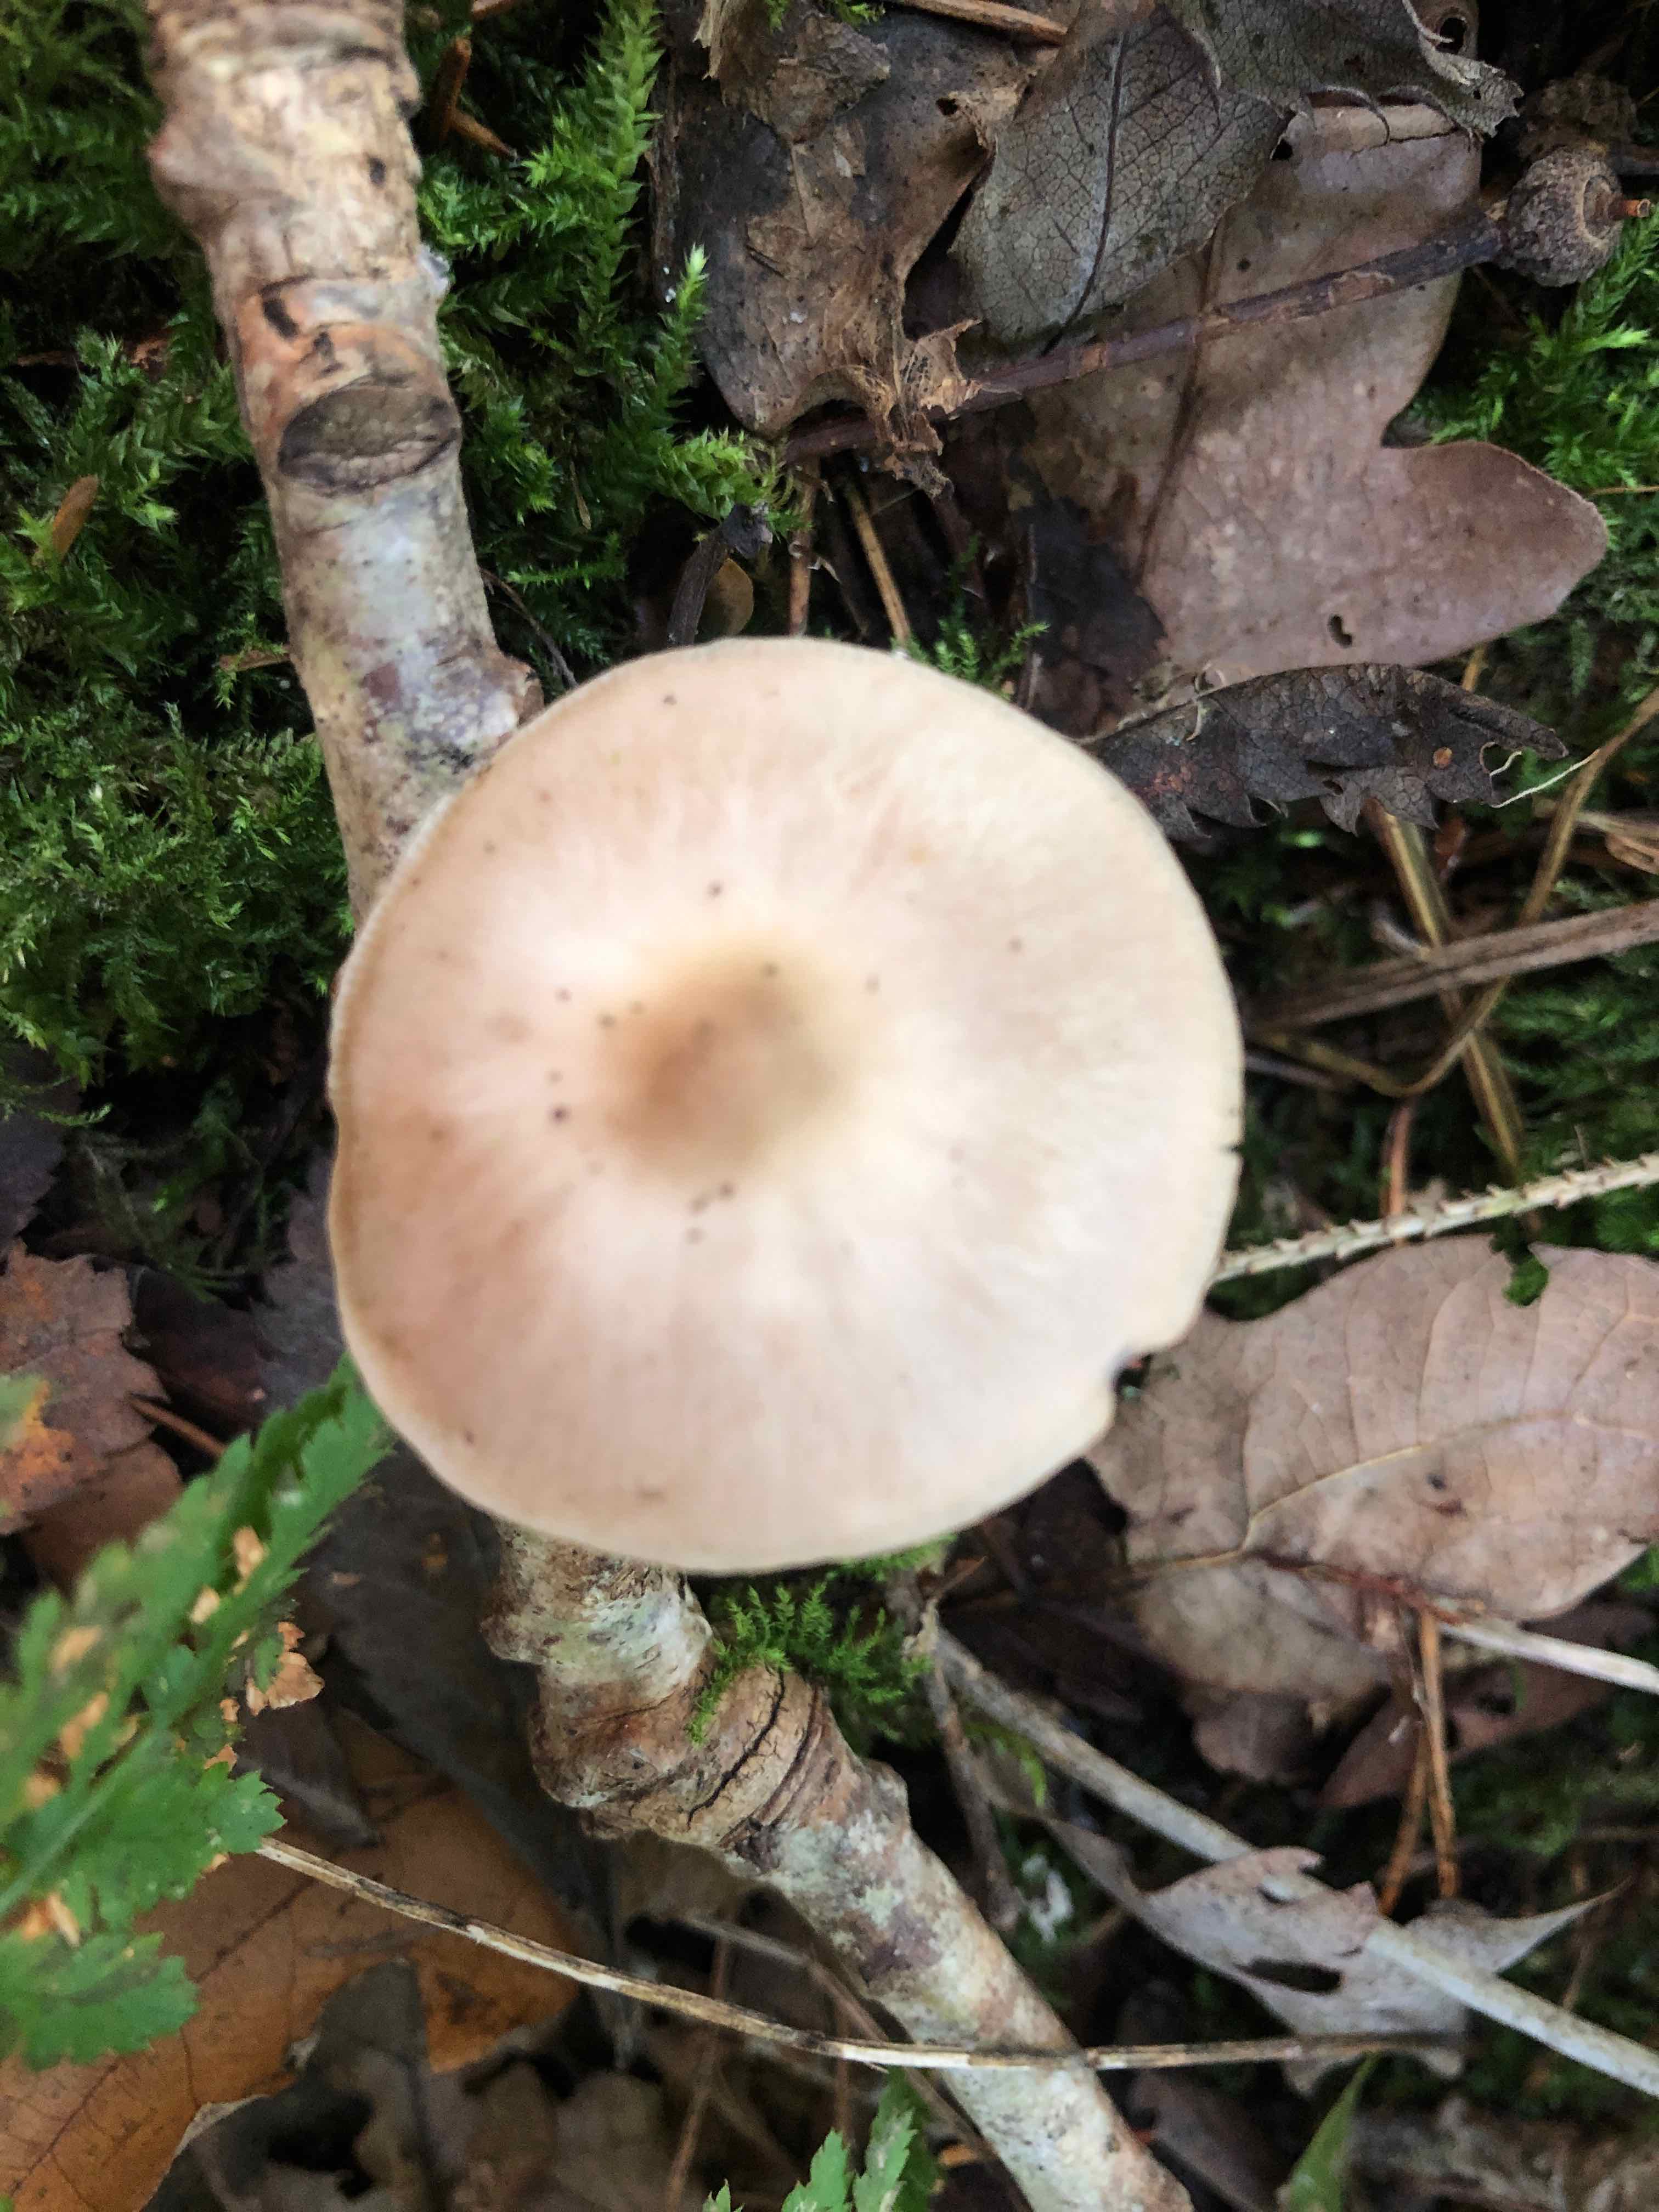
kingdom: Fungi
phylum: Basidiomycota
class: Agaricomycetes
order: Agaricales
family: Omphalotaceae
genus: Rhodocollybia
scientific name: Rhodocollybia asema
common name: horngrå fladhat
